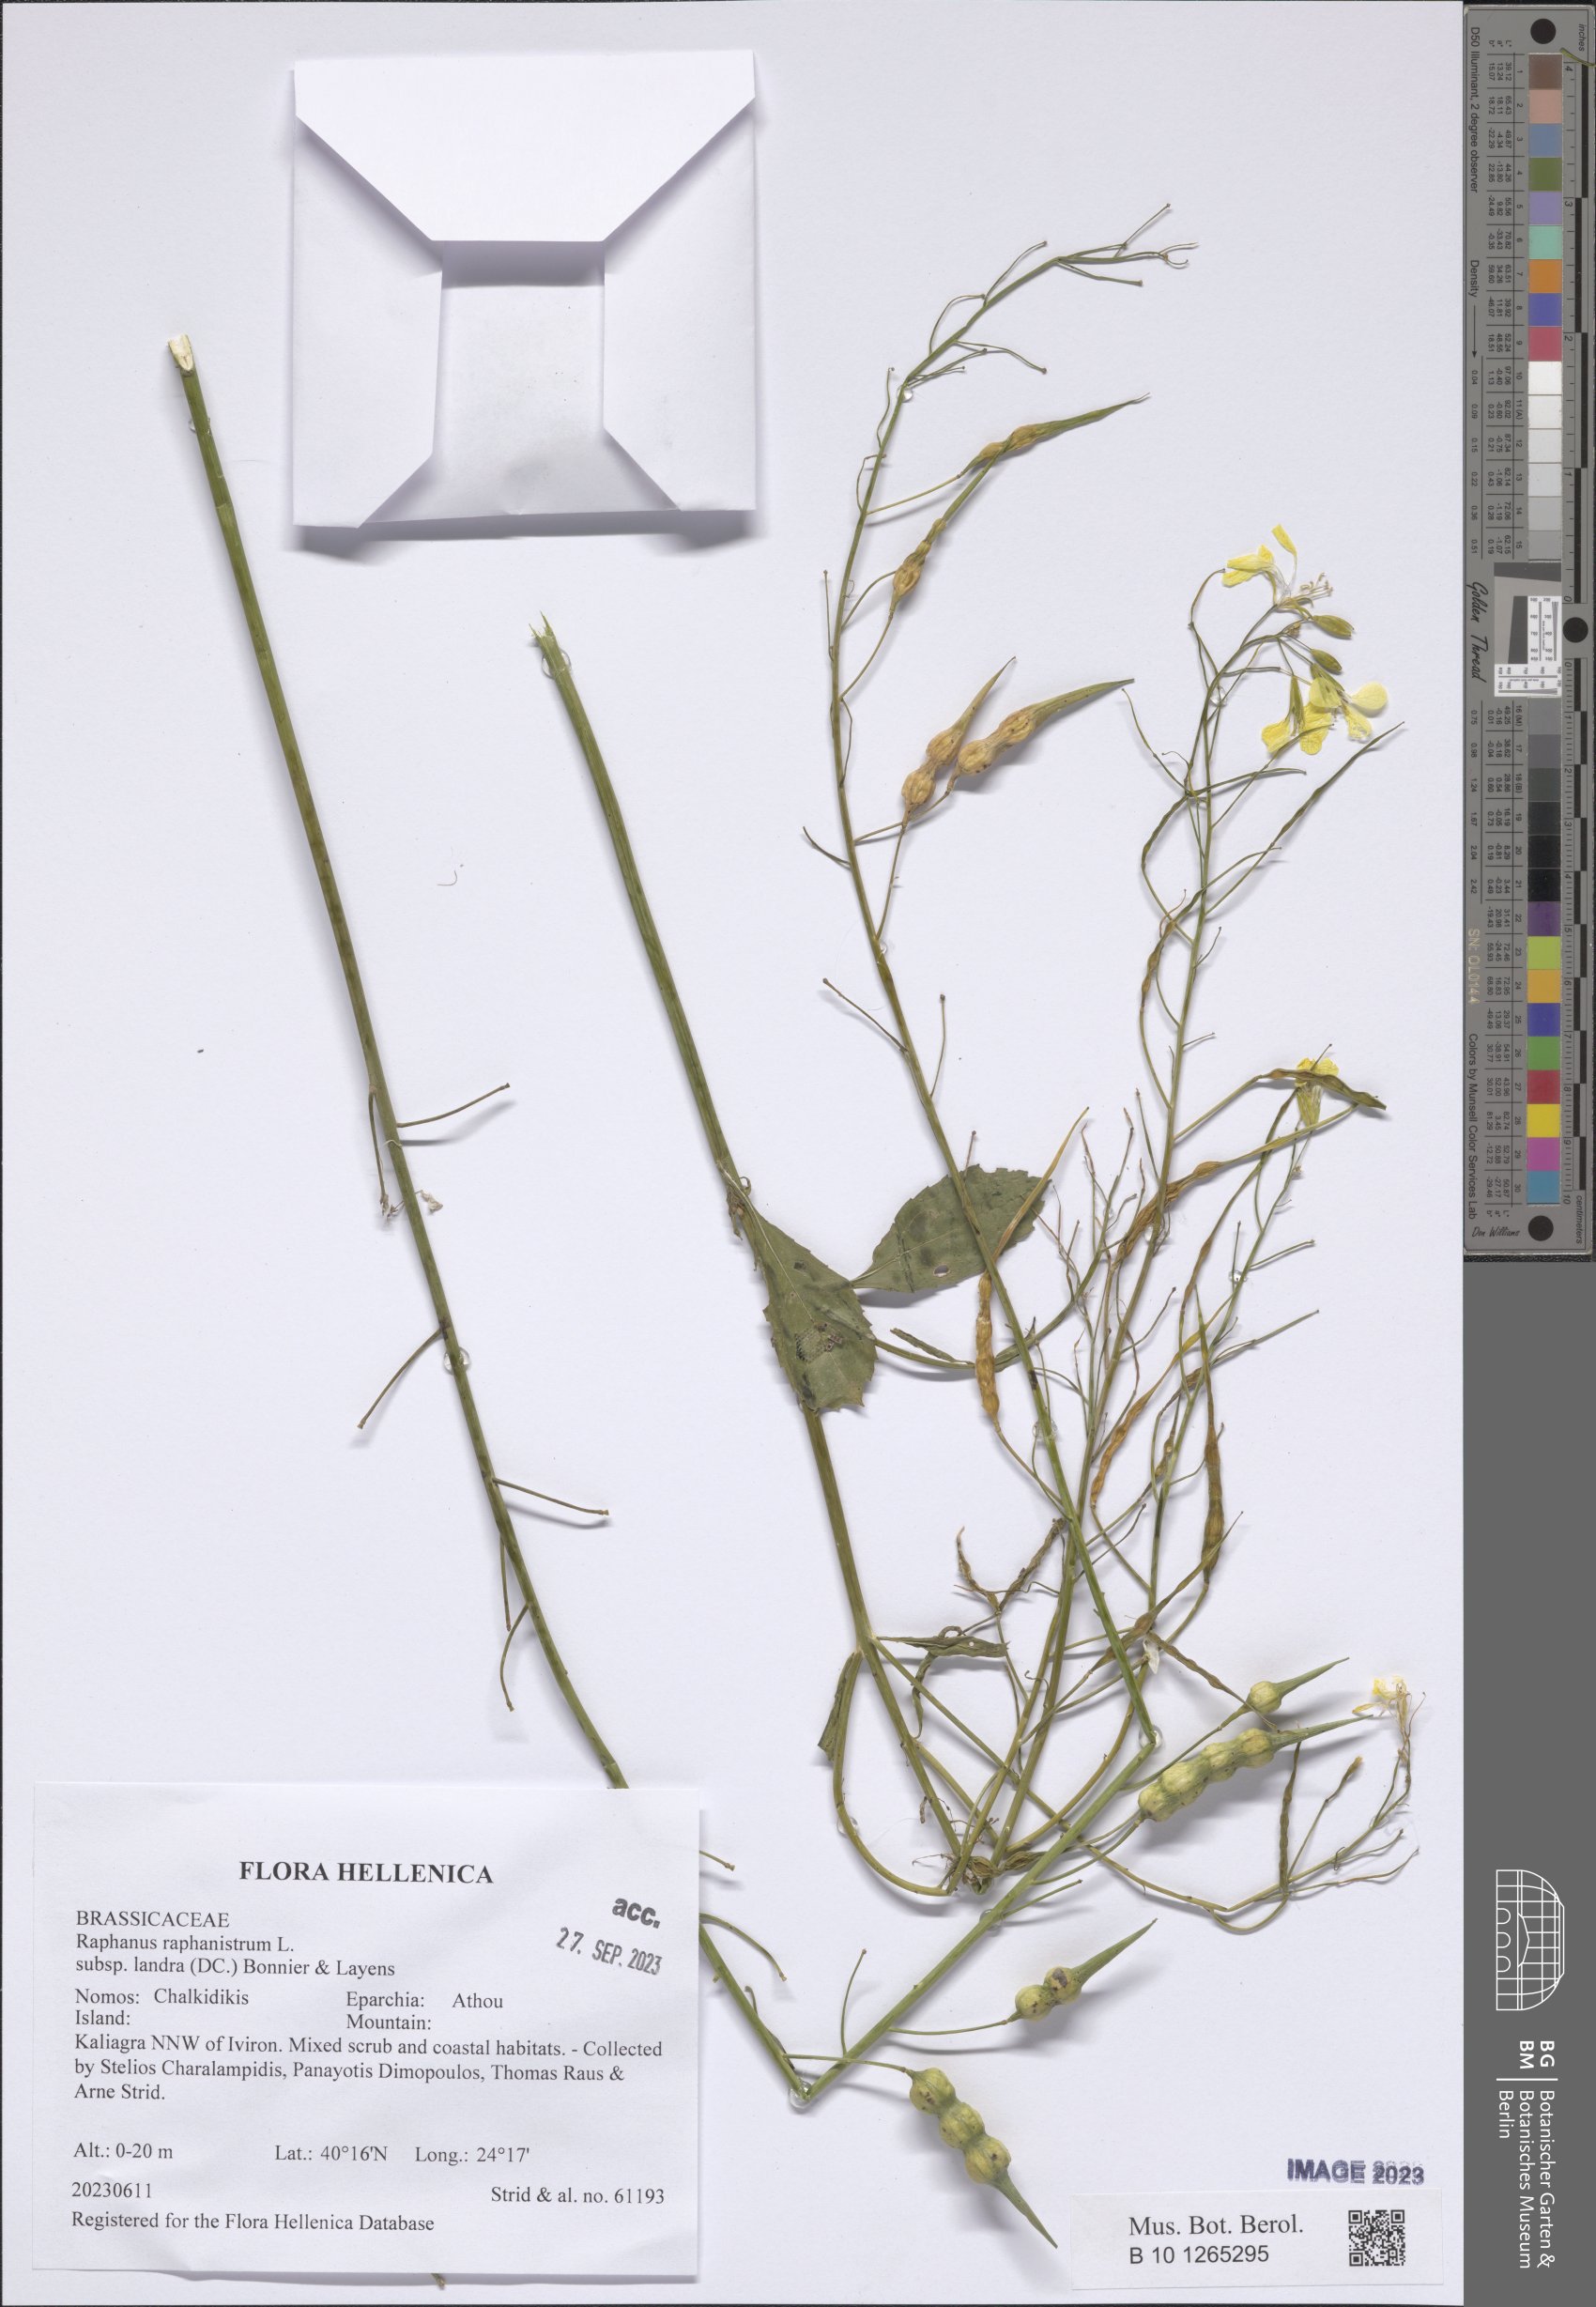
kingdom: Plantae
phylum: Tracheophyta
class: Magnoliopsida
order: Brassicales
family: Brassicaceae
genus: Raphanus
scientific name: Raphanus raphanistrum
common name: Wild radish
